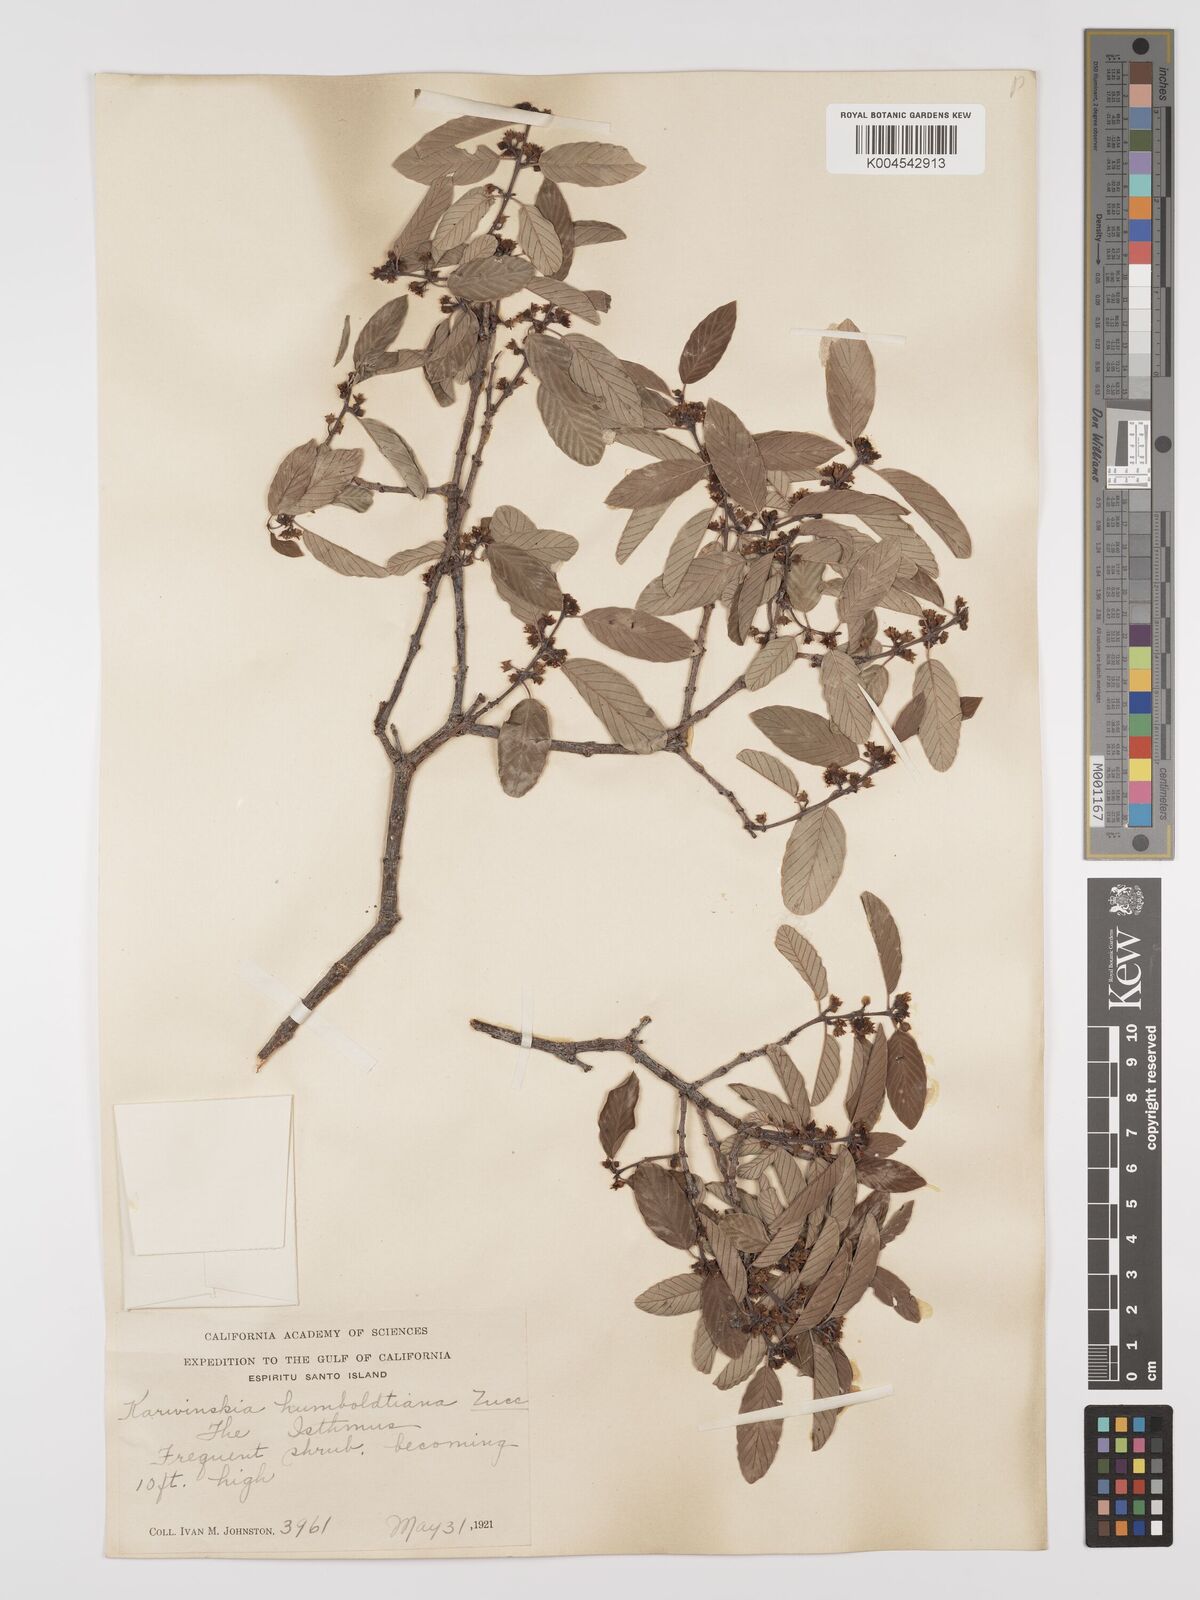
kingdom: Plantae
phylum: Tracheophyta
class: Magnoliopsida
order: Rosales
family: Rhamnaceae
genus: Karwinskia
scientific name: Karwinskia humboldtiana
